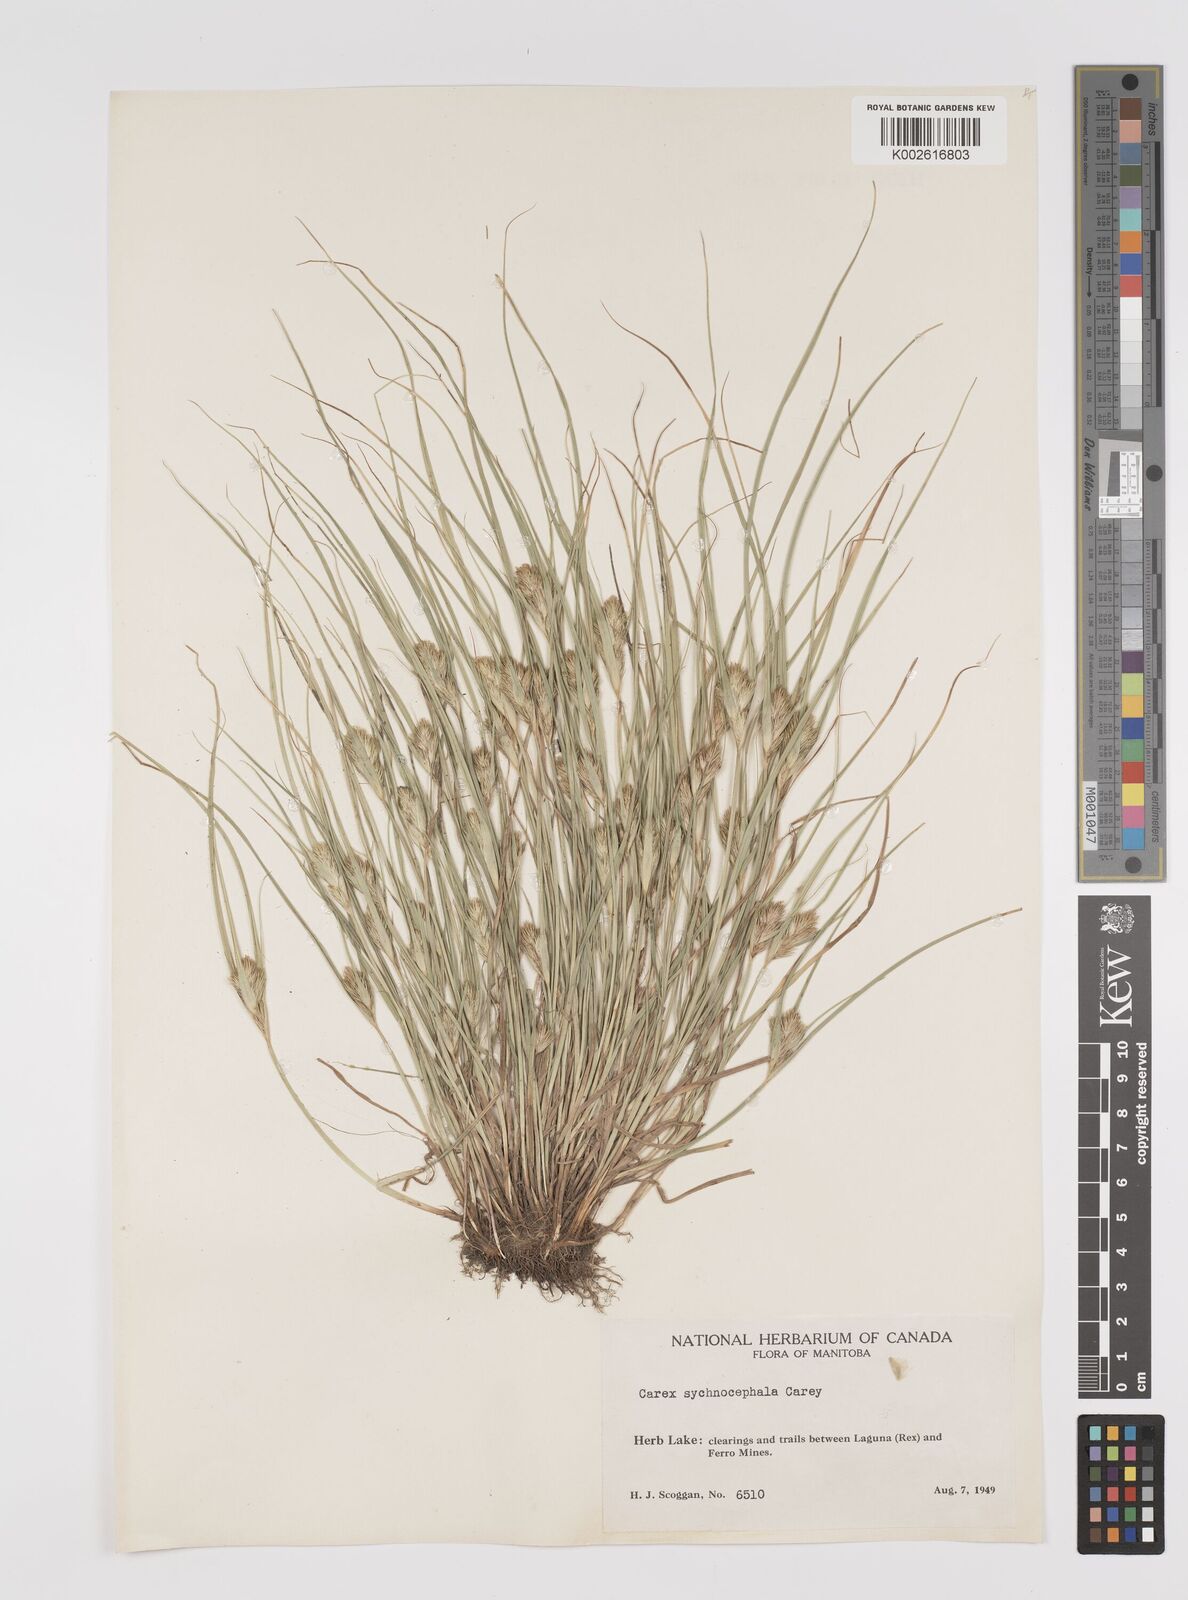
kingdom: Plantae
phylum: Tracheophyta
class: Liliopsida
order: Poales
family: Cyperaceae
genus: Carex
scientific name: Carex sychnocephala
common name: Dense long-beaked sedge
